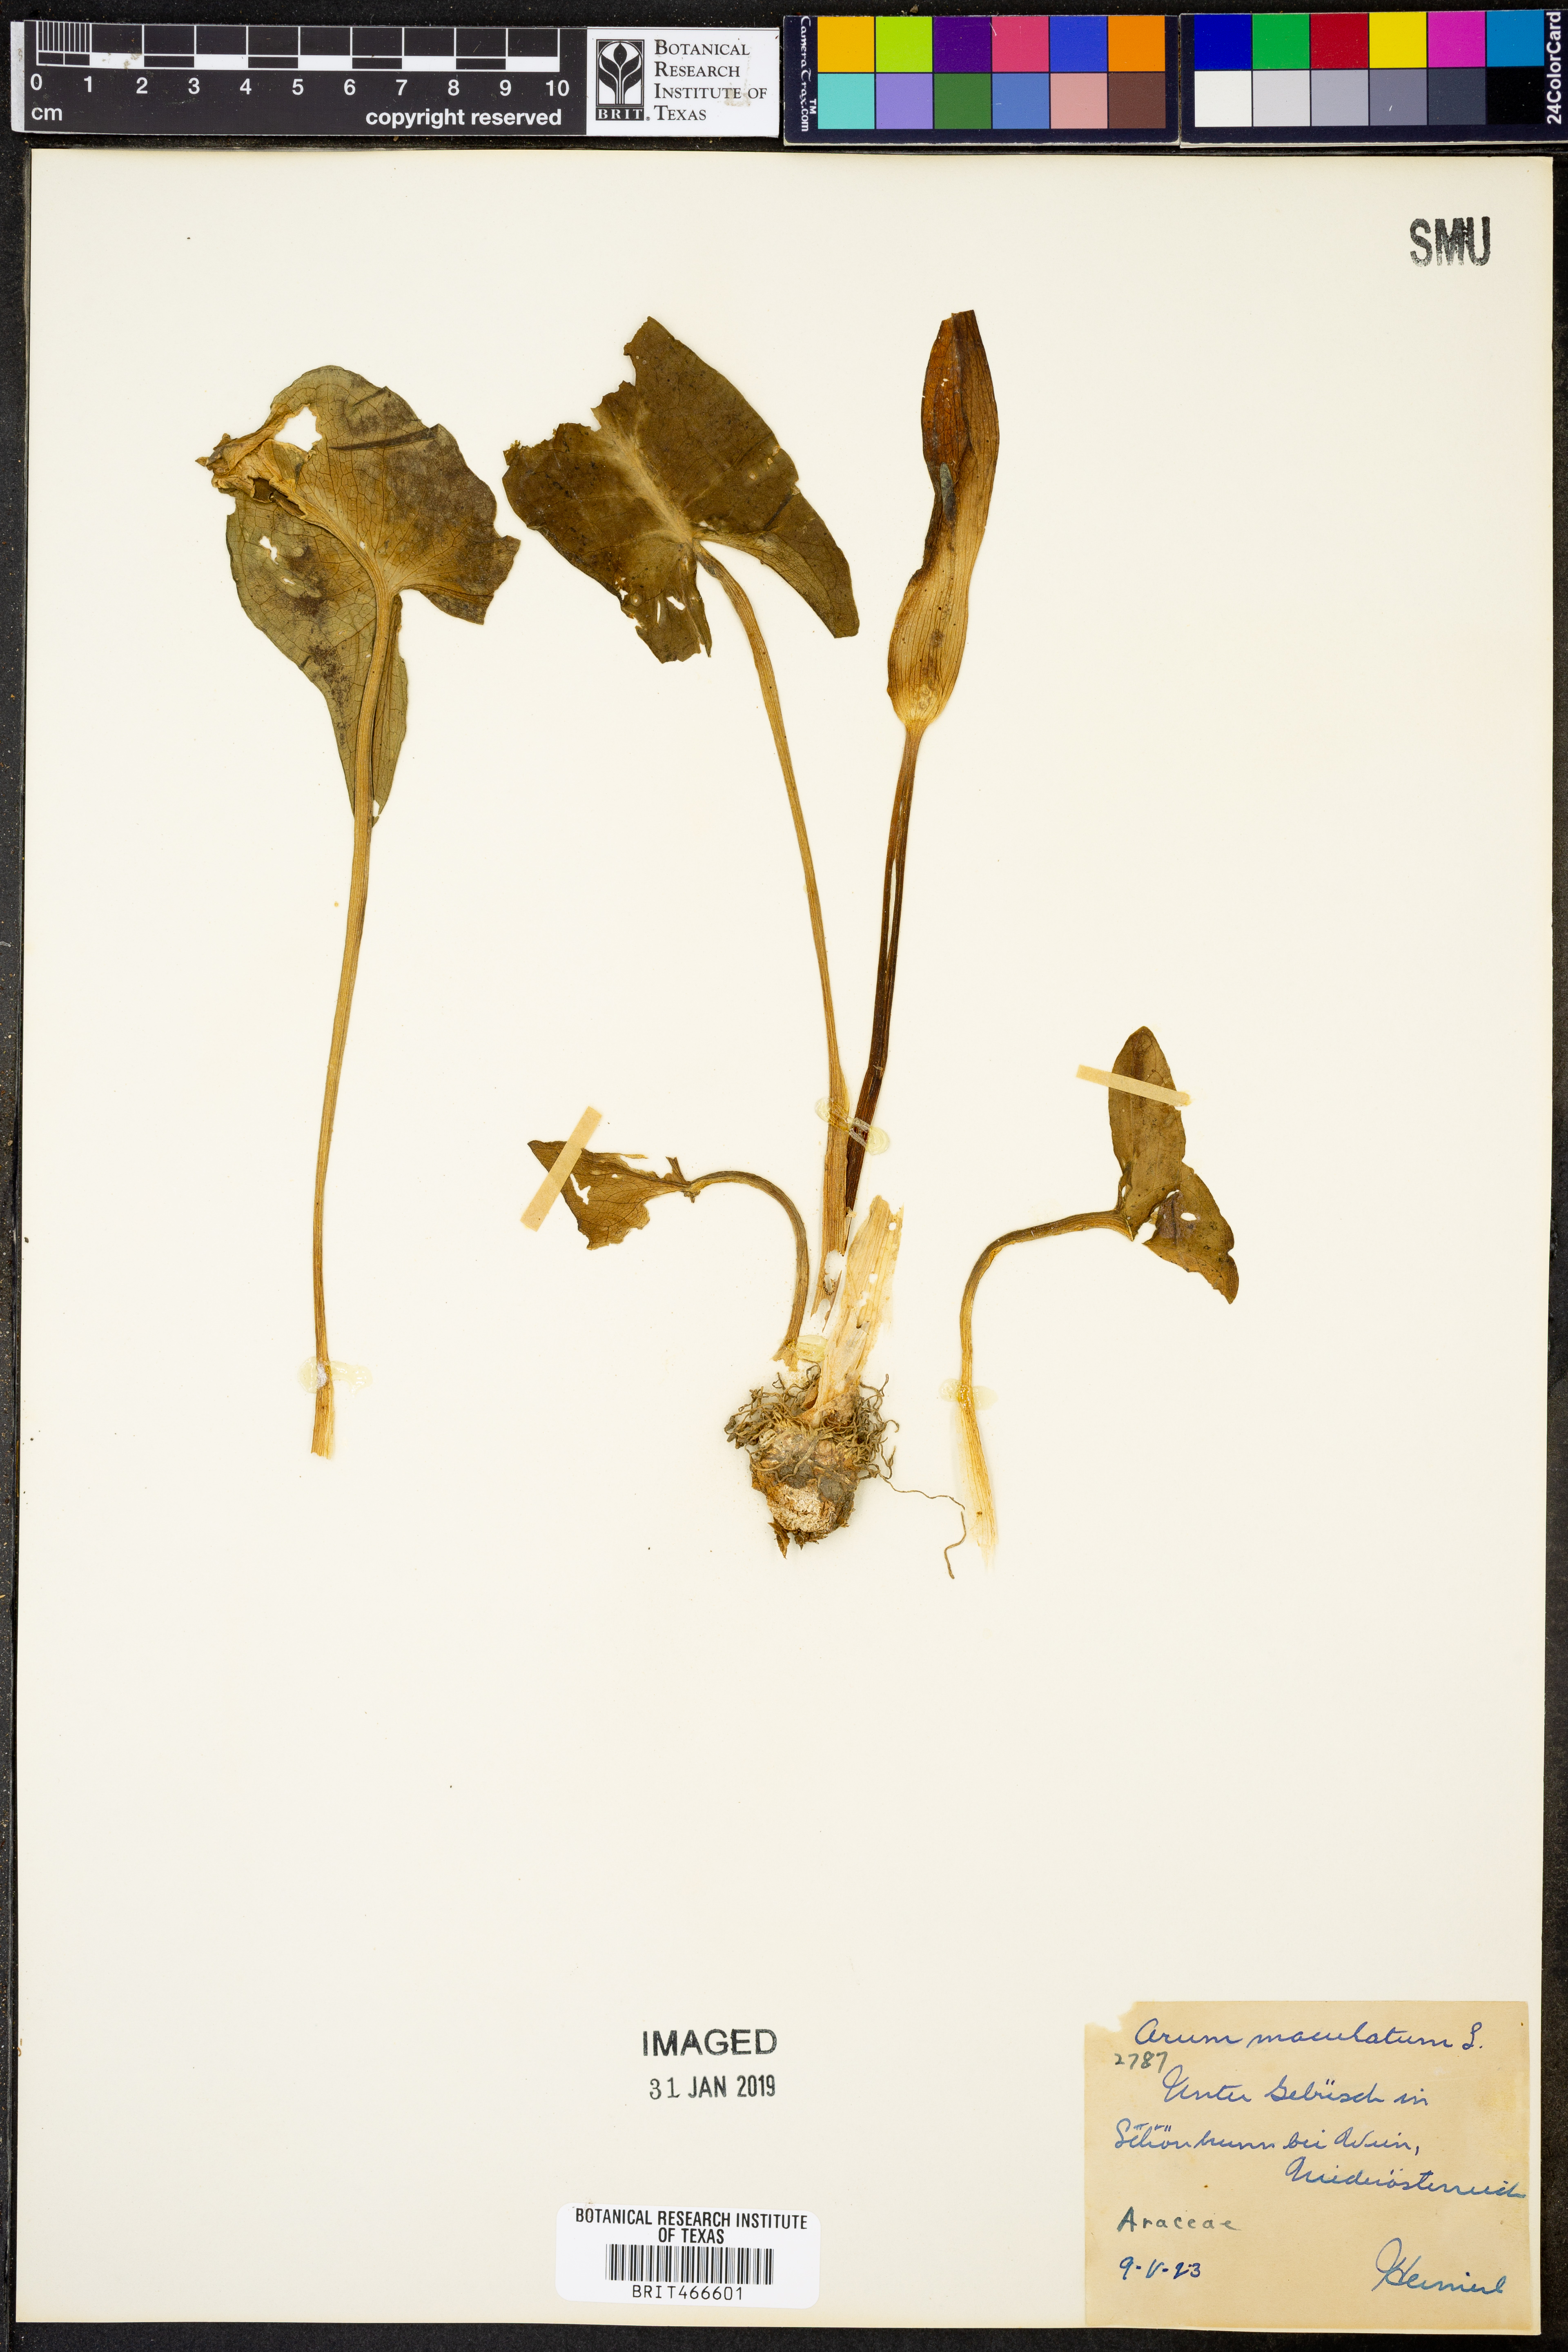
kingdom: Plantae
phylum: Tracheophyta
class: Liliopsida
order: Alismatales
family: Araceae
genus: Arum
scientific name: Arum maculatum
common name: Lords-and-ladies
